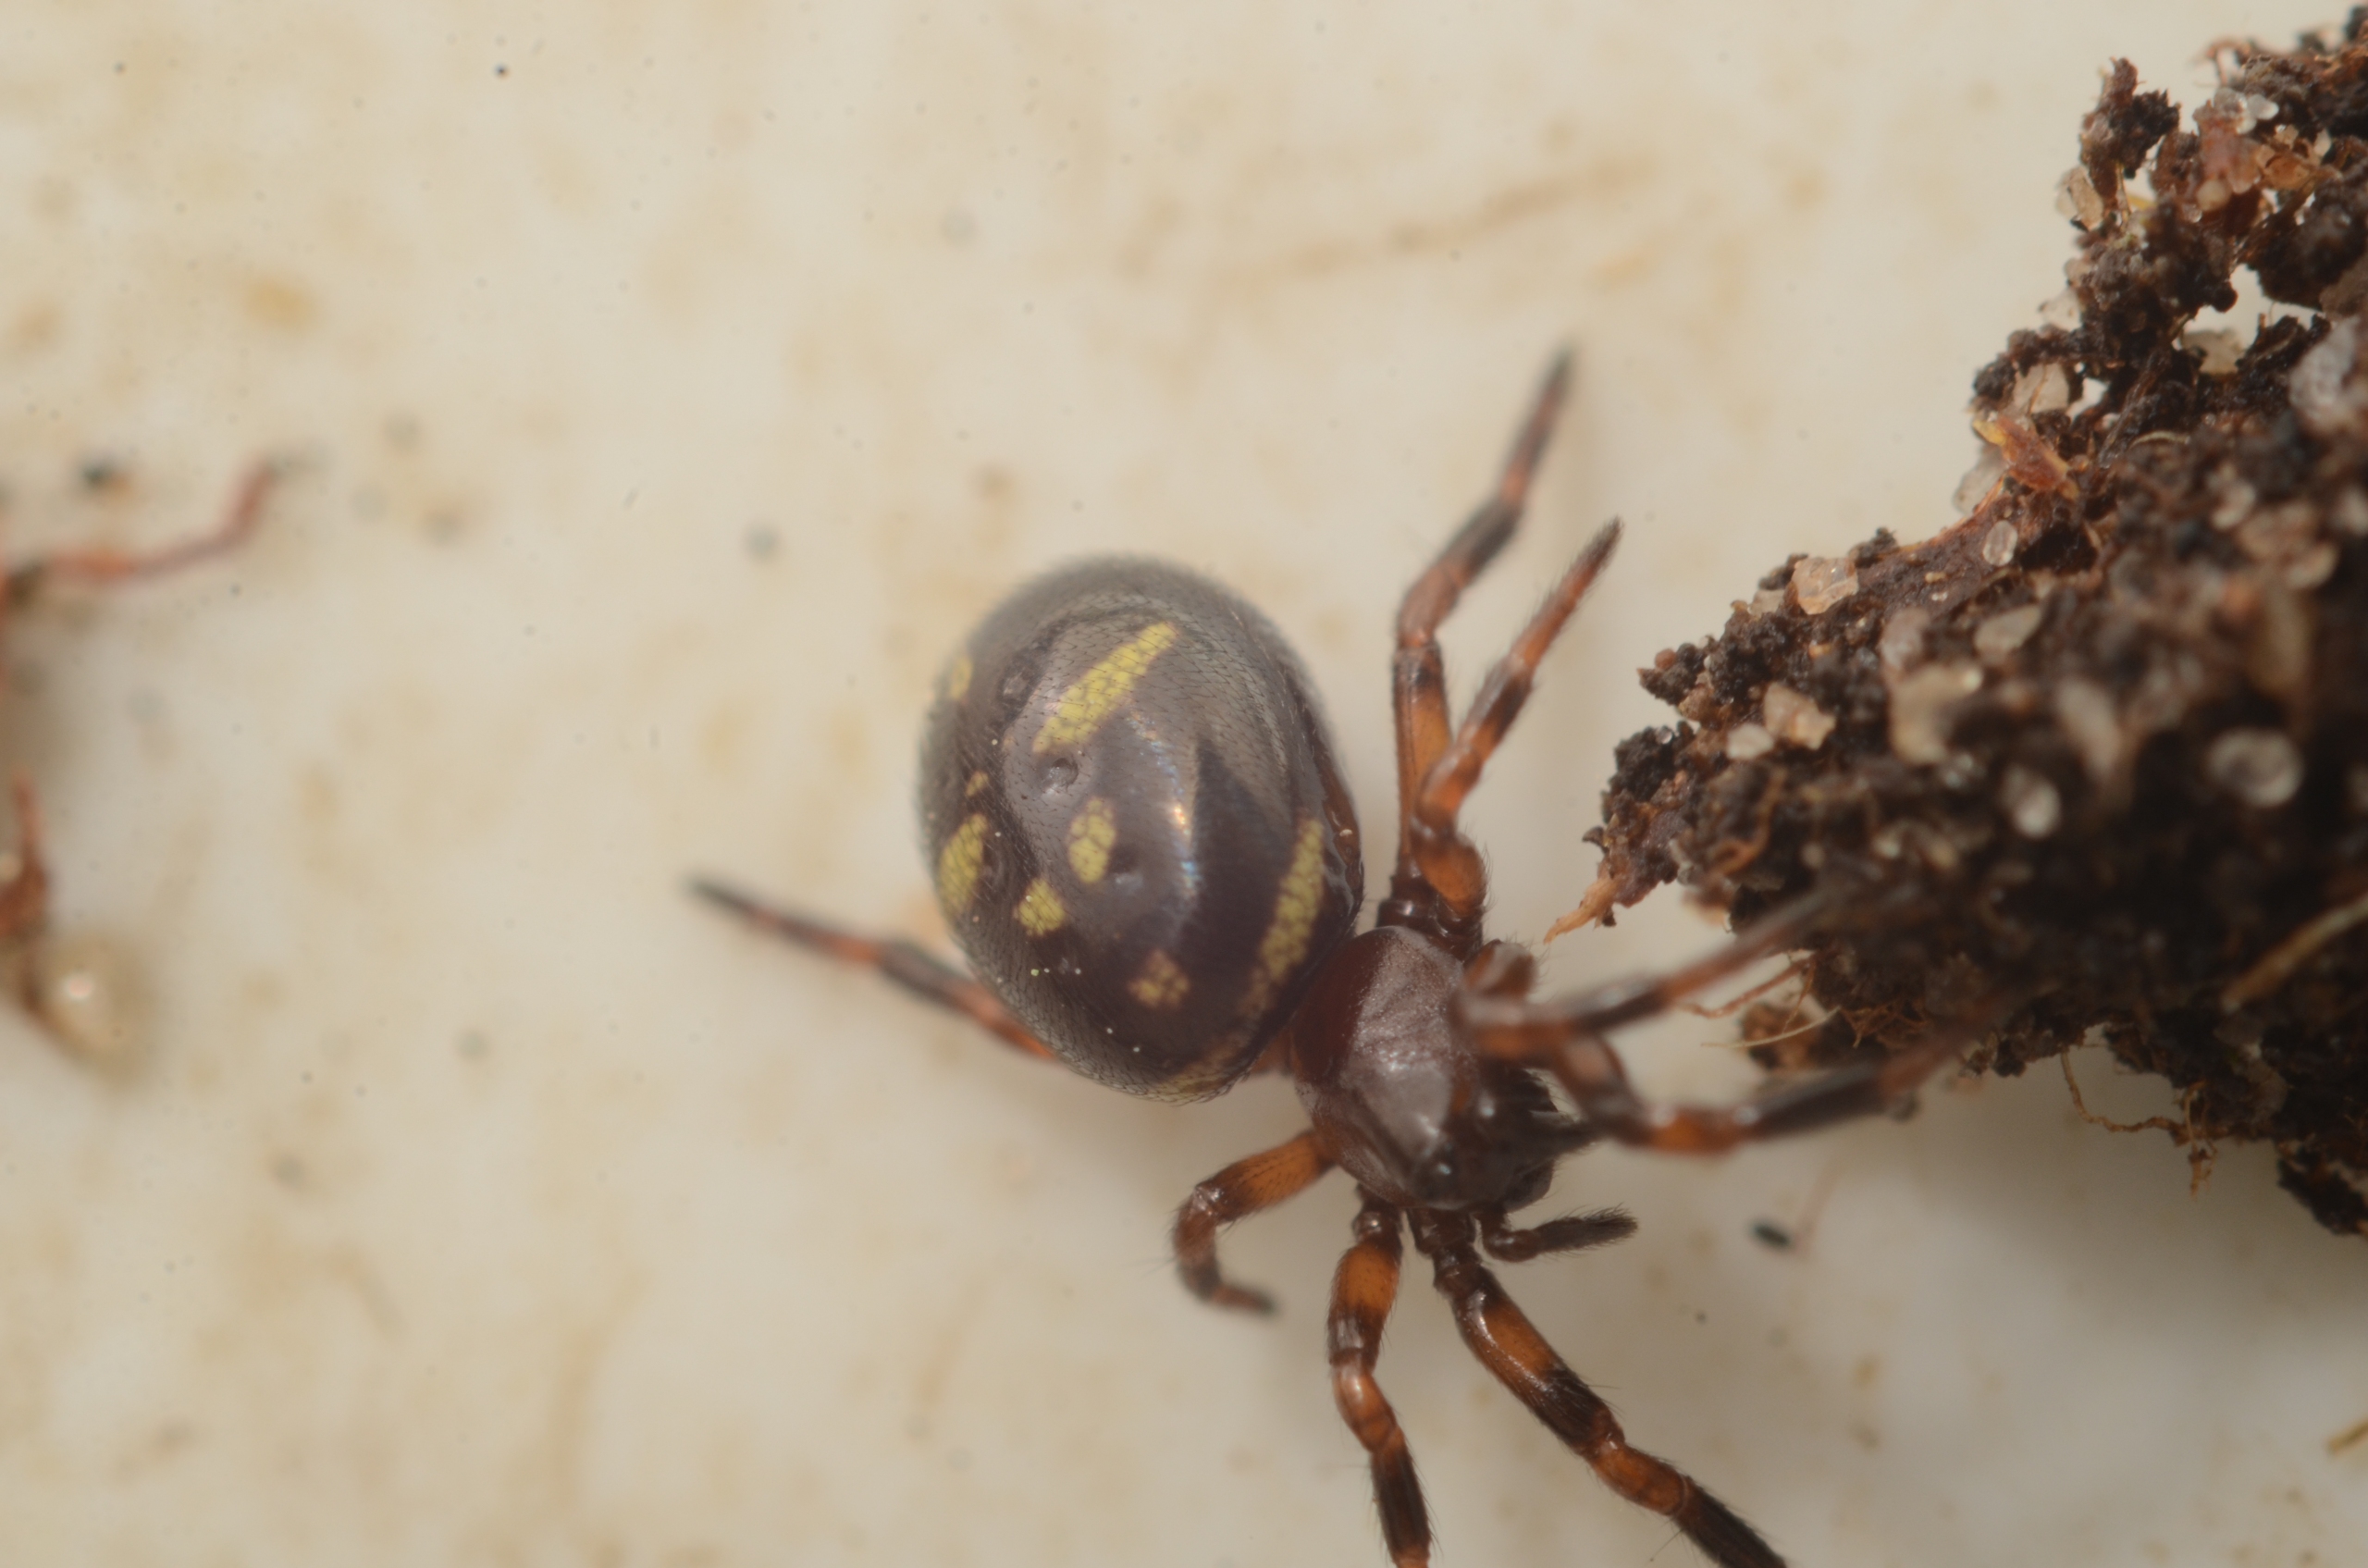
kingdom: Animalia
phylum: Arthropoda
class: Arachnida
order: Araneae
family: Theridiidae
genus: Asagena
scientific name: Asagena phalerata
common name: Smuk voksedderkop
